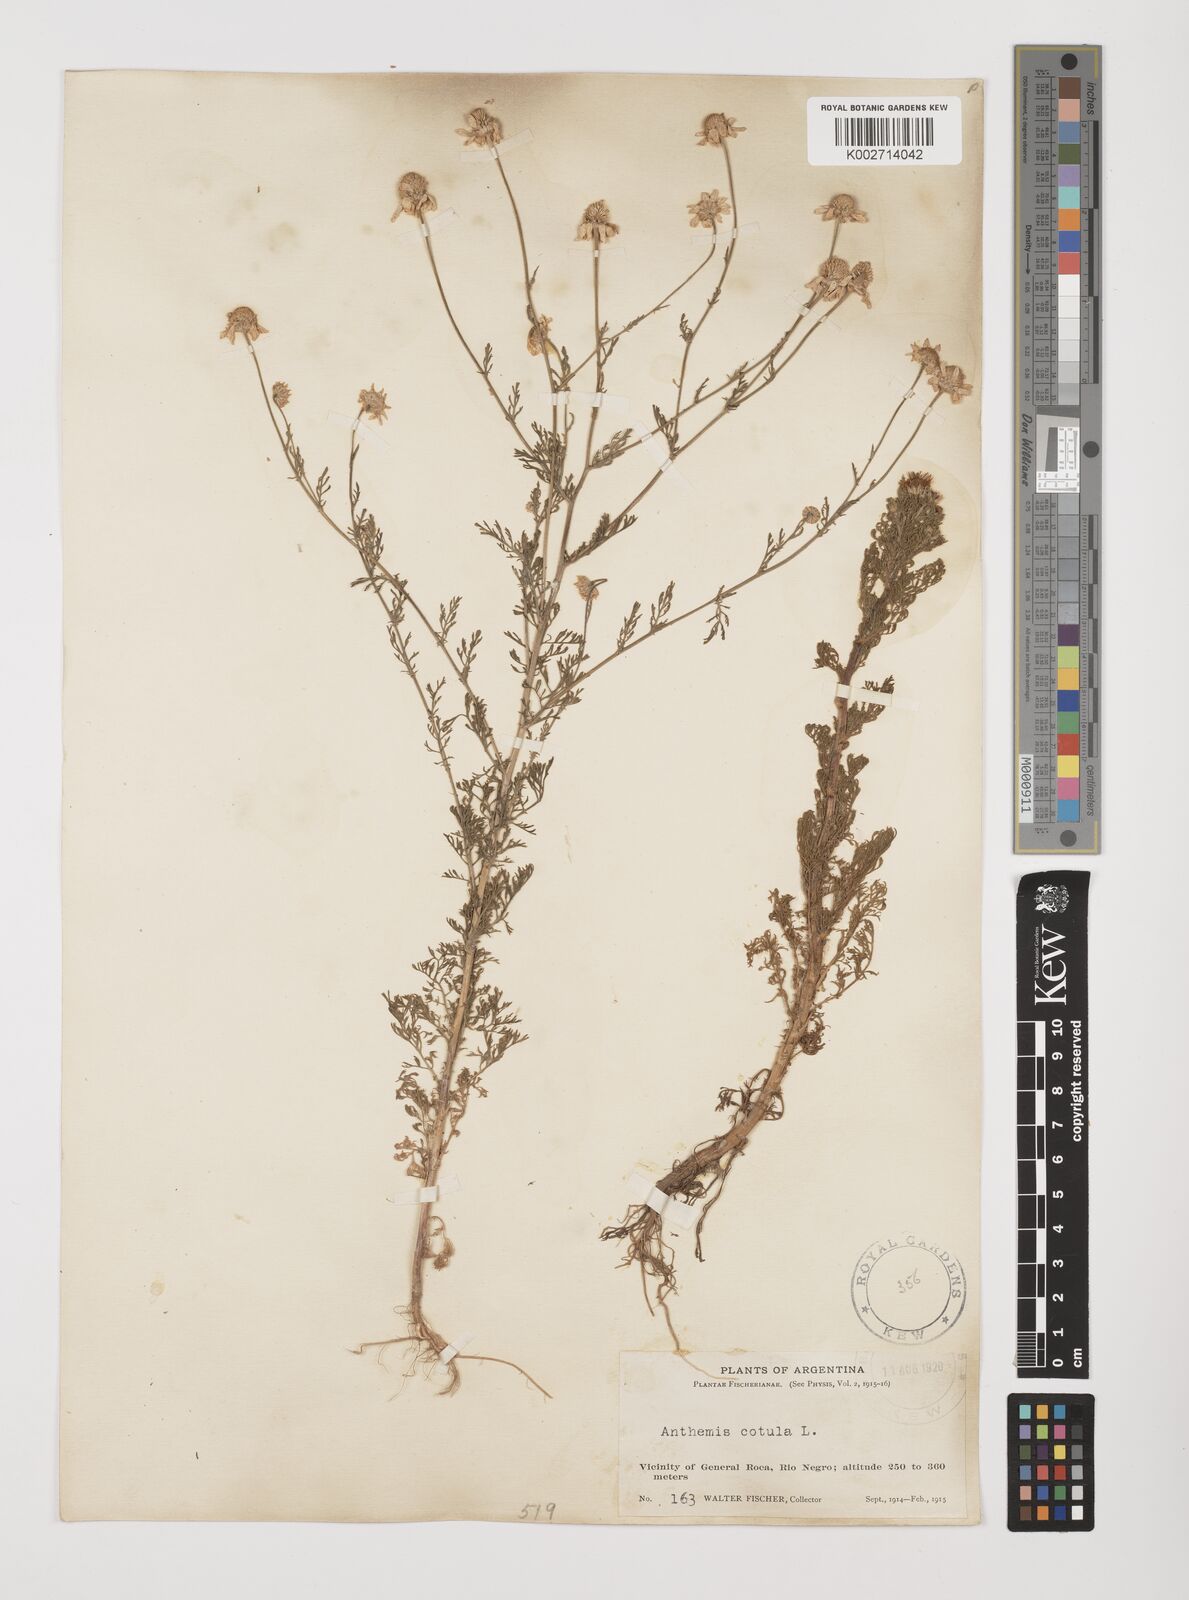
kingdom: Plantae
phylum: Tracheophyta
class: Magnoliopsida
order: Asterales
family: Asteraceae
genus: Anthemis
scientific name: Anthemis cotula
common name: Stinking chamomile
